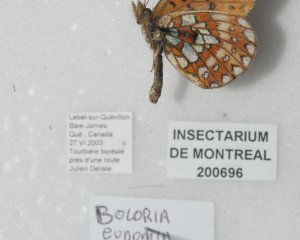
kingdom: Animalia
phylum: Arthropoda
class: Insecta
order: Lepidoptera
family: Nymphalidae
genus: Boloria
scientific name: Boloria eunomia
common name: Bog Fritillary
